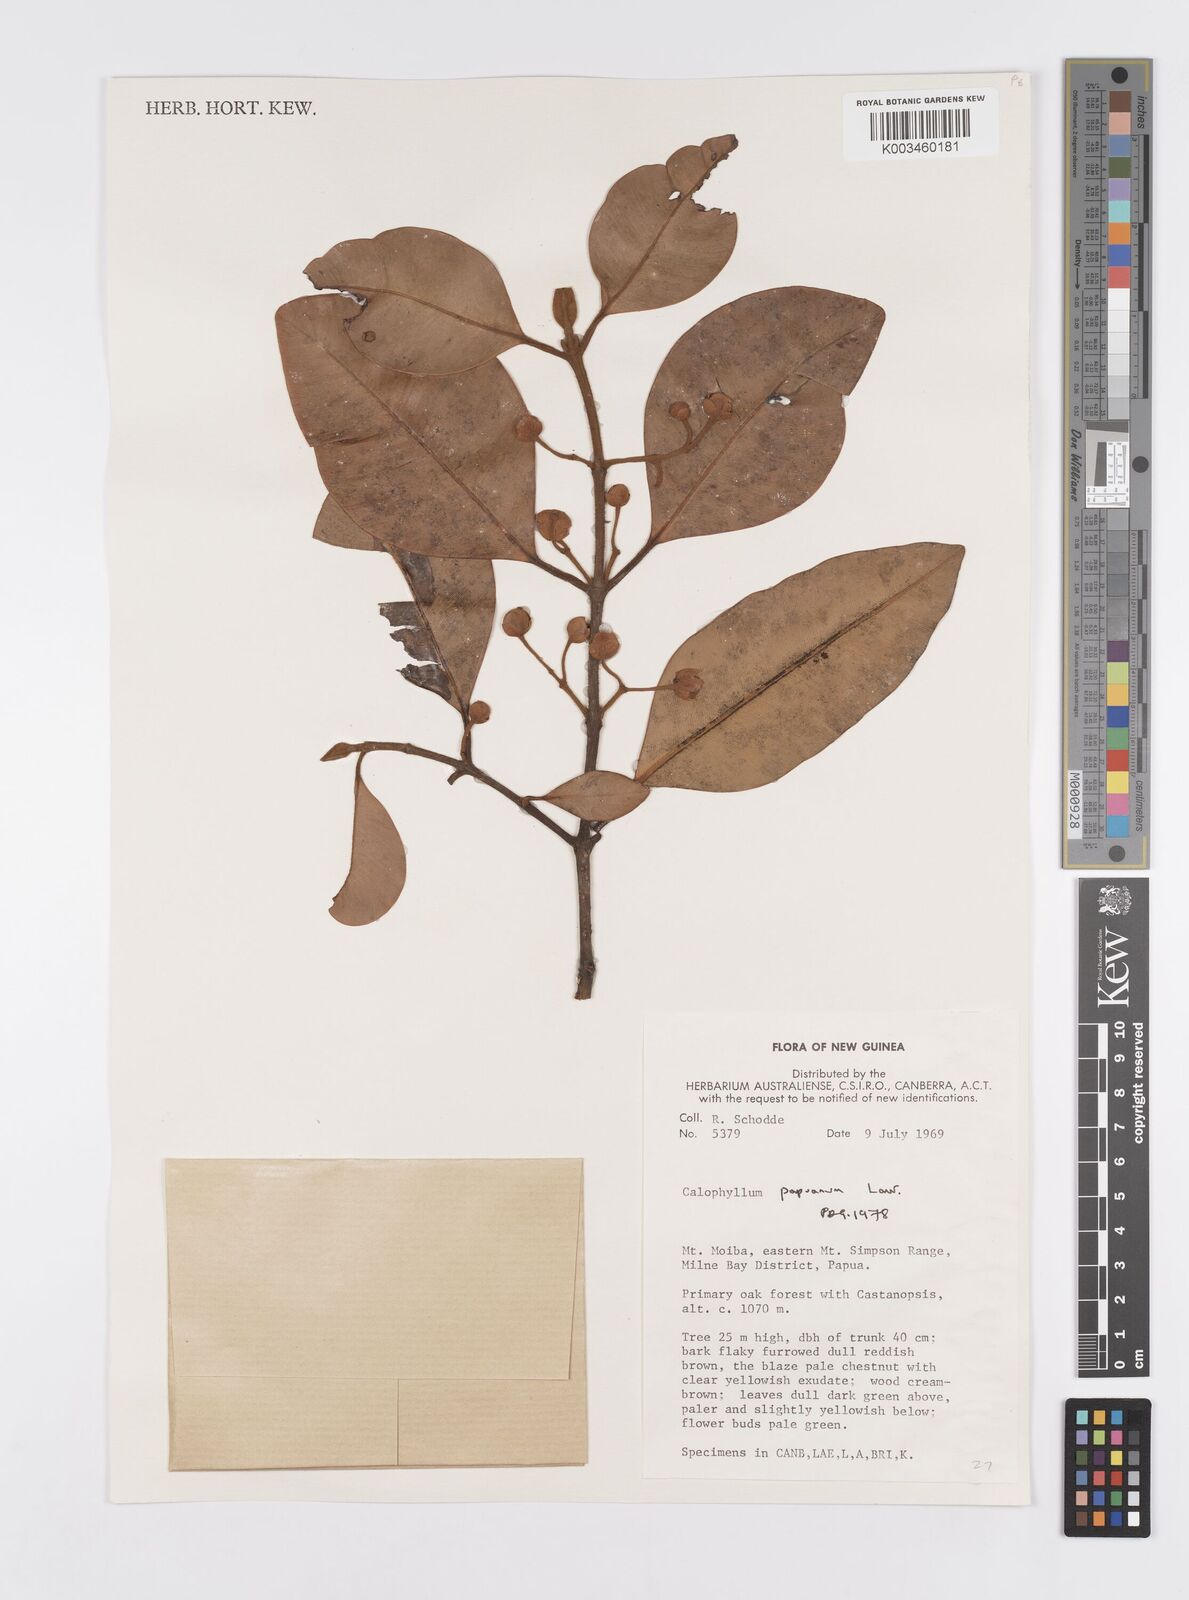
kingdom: Plantae
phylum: Tracheophyta
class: Magnoliopsida
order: Malpighiales
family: Calophyllaceae
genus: Calophyllum
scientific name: Calophyllum papuanum
